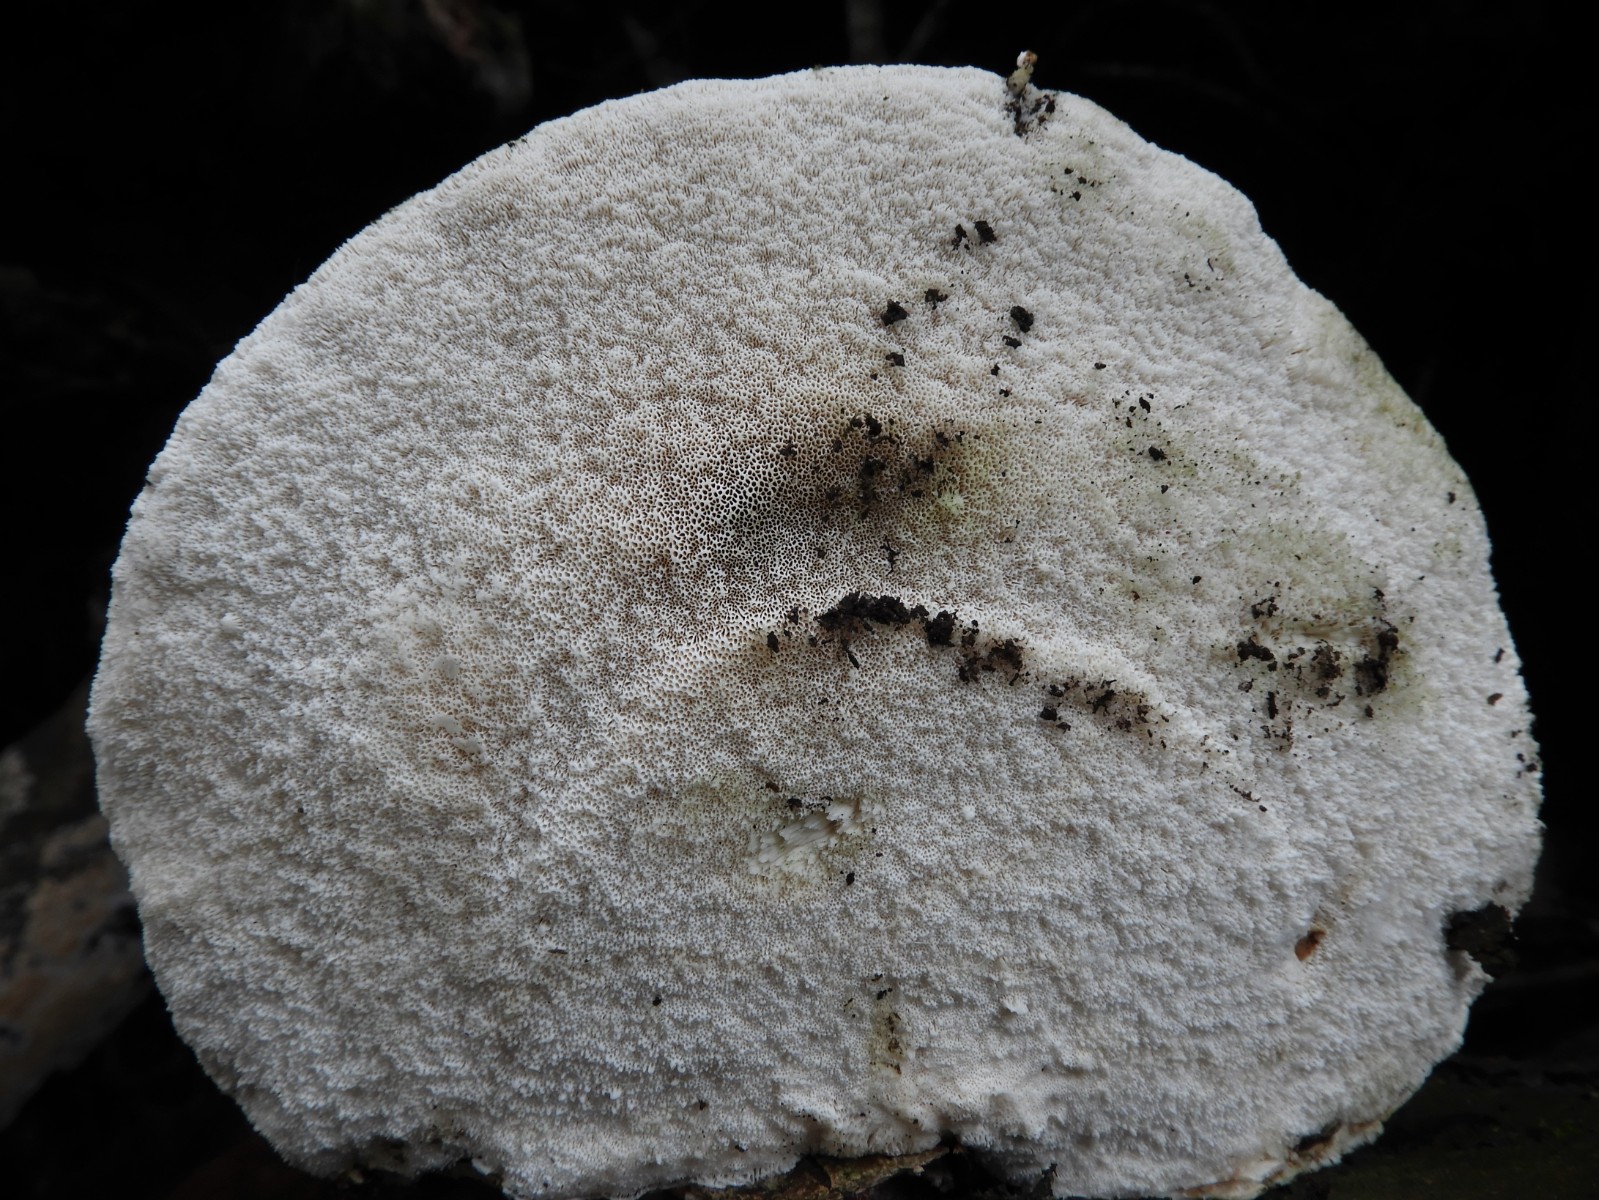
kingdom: Fungi
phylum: Basidiomycota
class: Agaricomycetes
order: Polyporales
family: Fomitopsidaceae
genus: Fomitopsis
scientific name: Fomitopsis betulina
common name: birkeporesvamp
